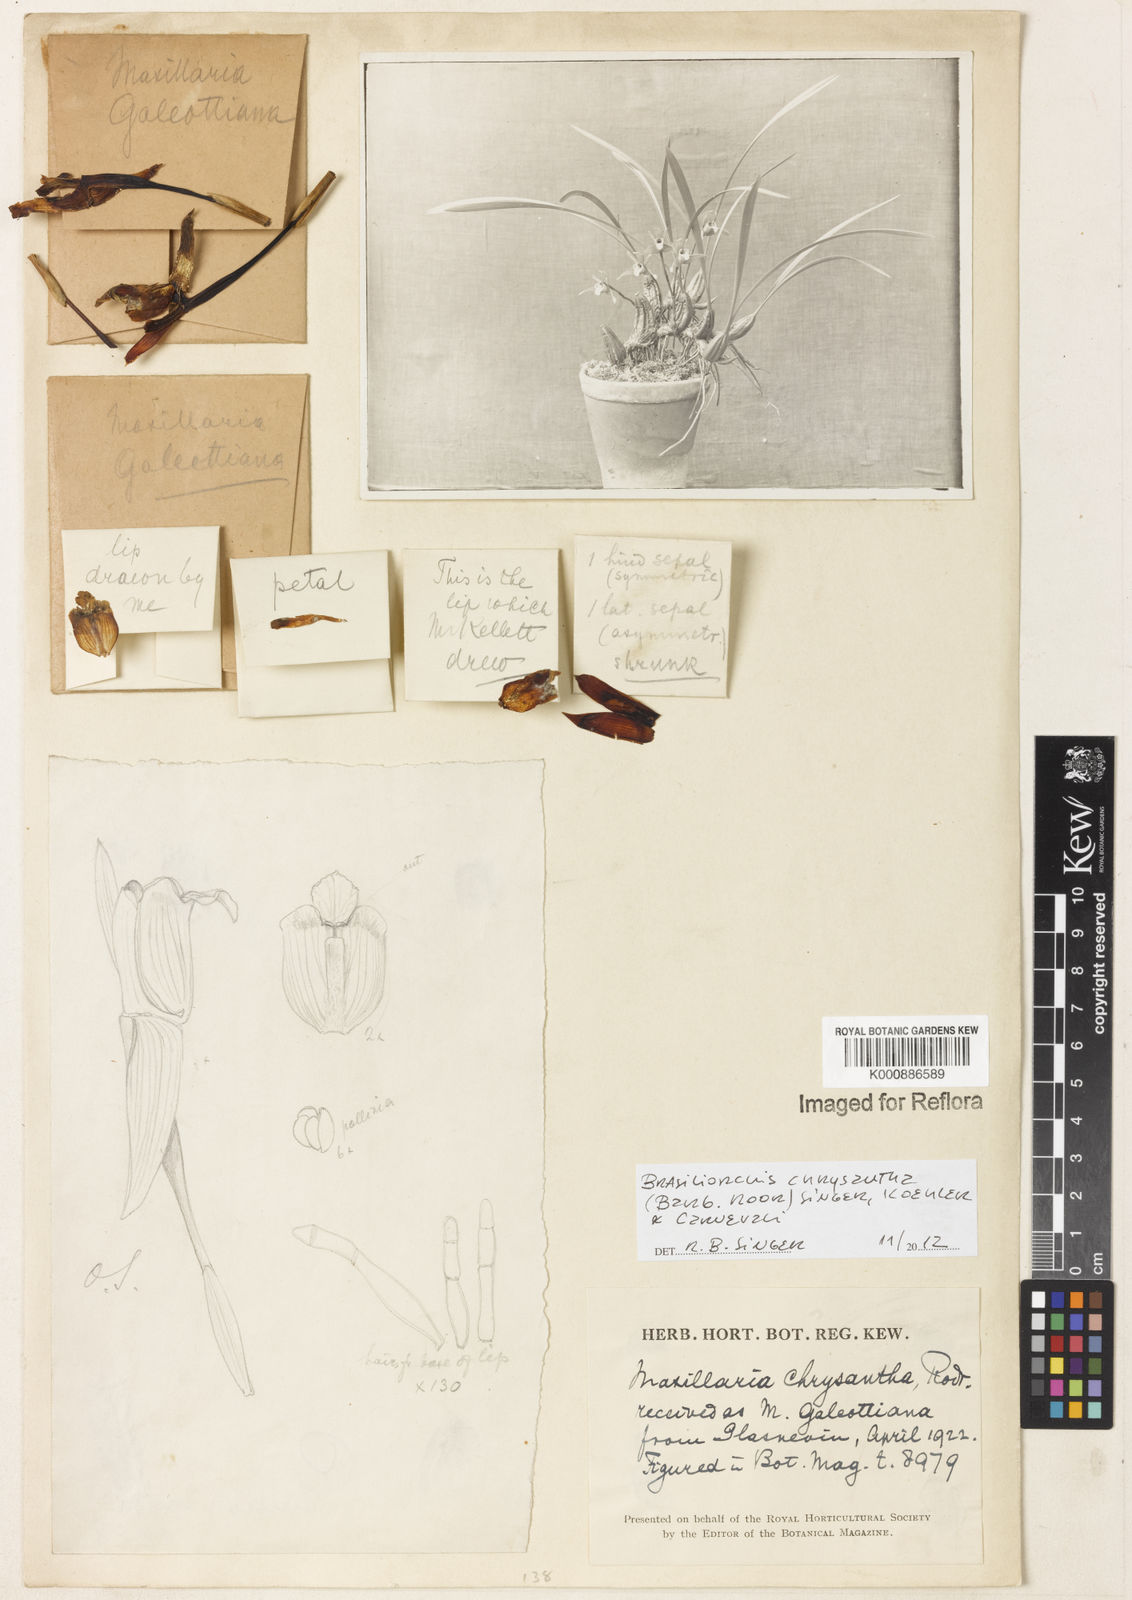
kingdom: Plantae
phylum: Tracheophyta
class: Liliopsida
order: Asparagales
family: Orchidaceae
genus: Maxillaria
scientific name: Maxillaria
